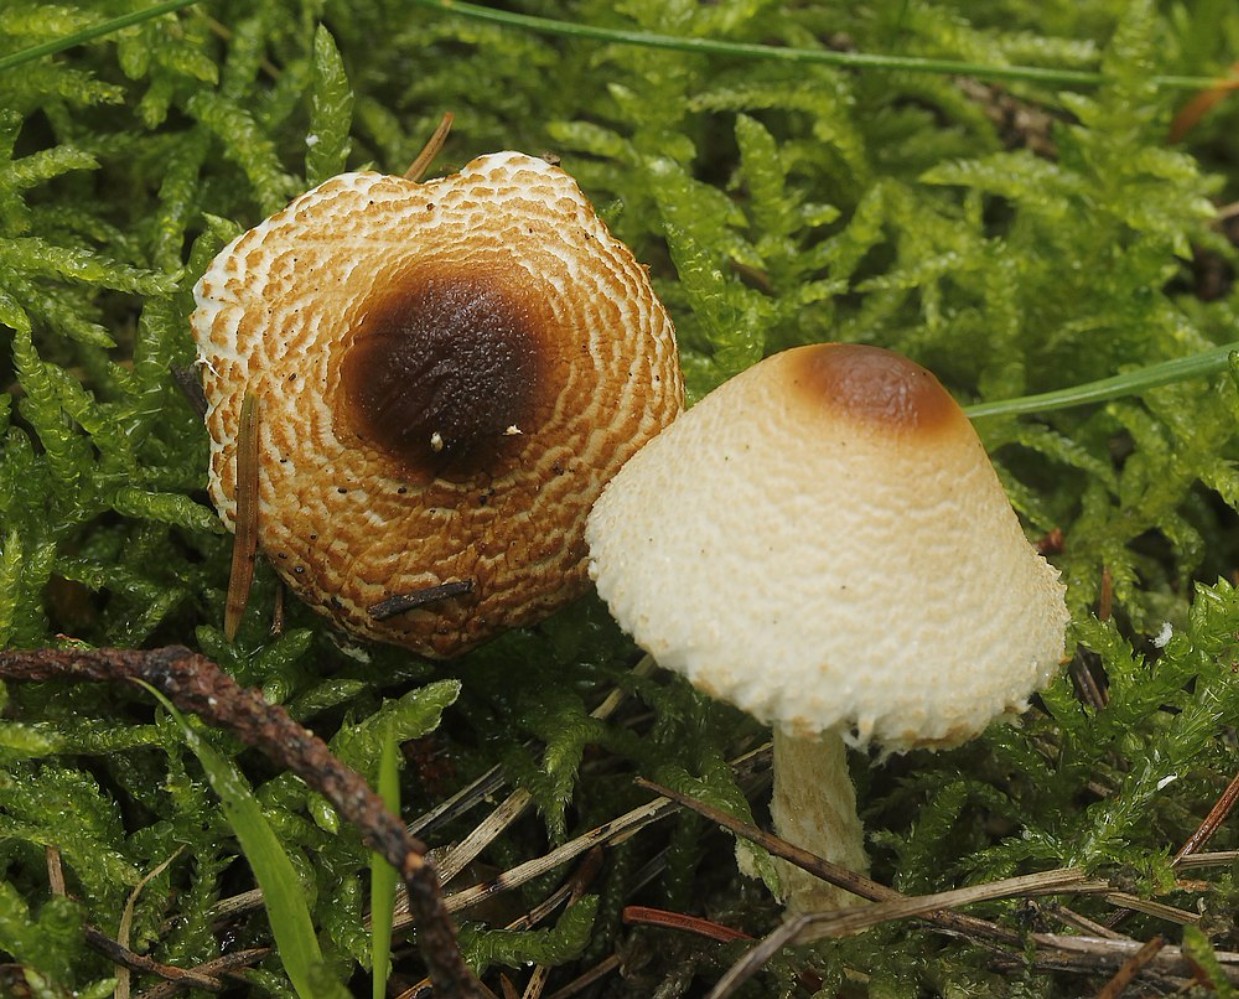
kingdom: Fungi
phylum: Basidiomycota
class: Agaricomycetes
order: Agaricales
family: Agaricaceae
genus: Lepiota
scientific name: Lepiota magnispora
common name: gulfnugget parasolhat
